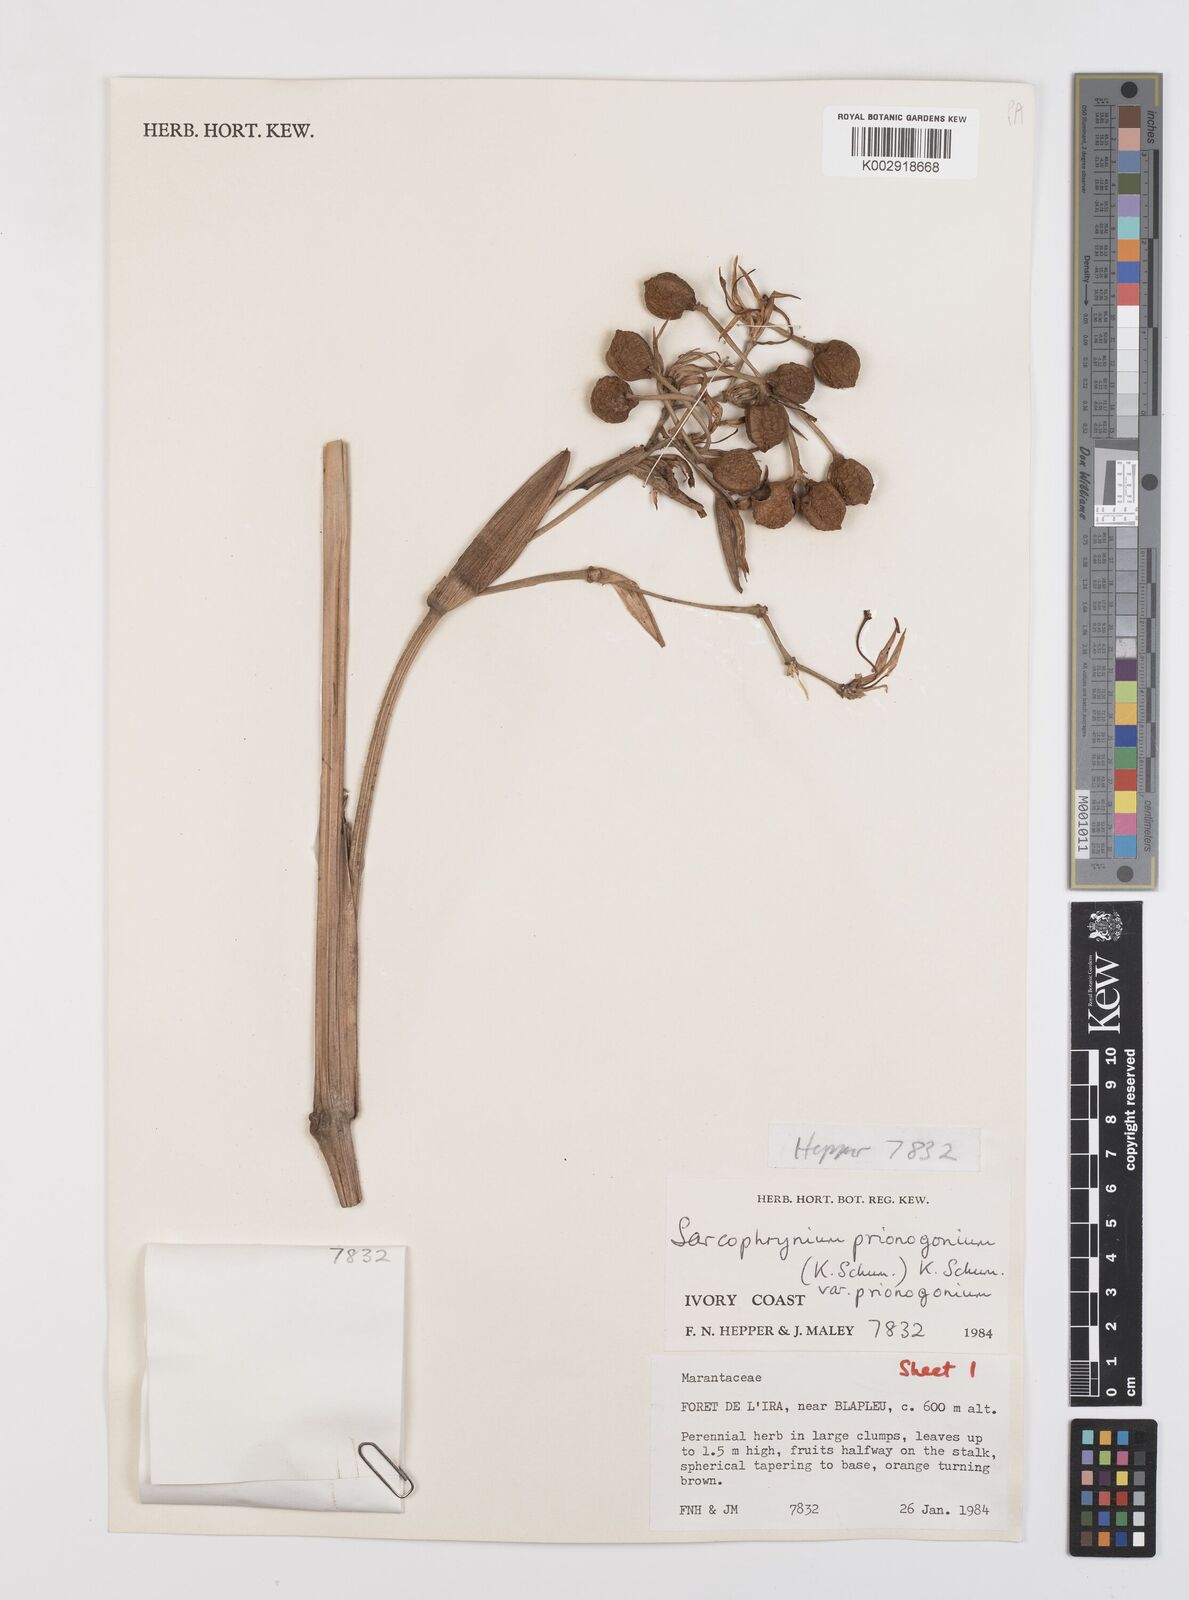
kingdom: Plantae
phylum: Tracheophyta
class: Liliopsida
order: Zingiberales
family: Marantaceae
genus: Sarcophrynium
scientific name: Sarcophrynium prionogonium
